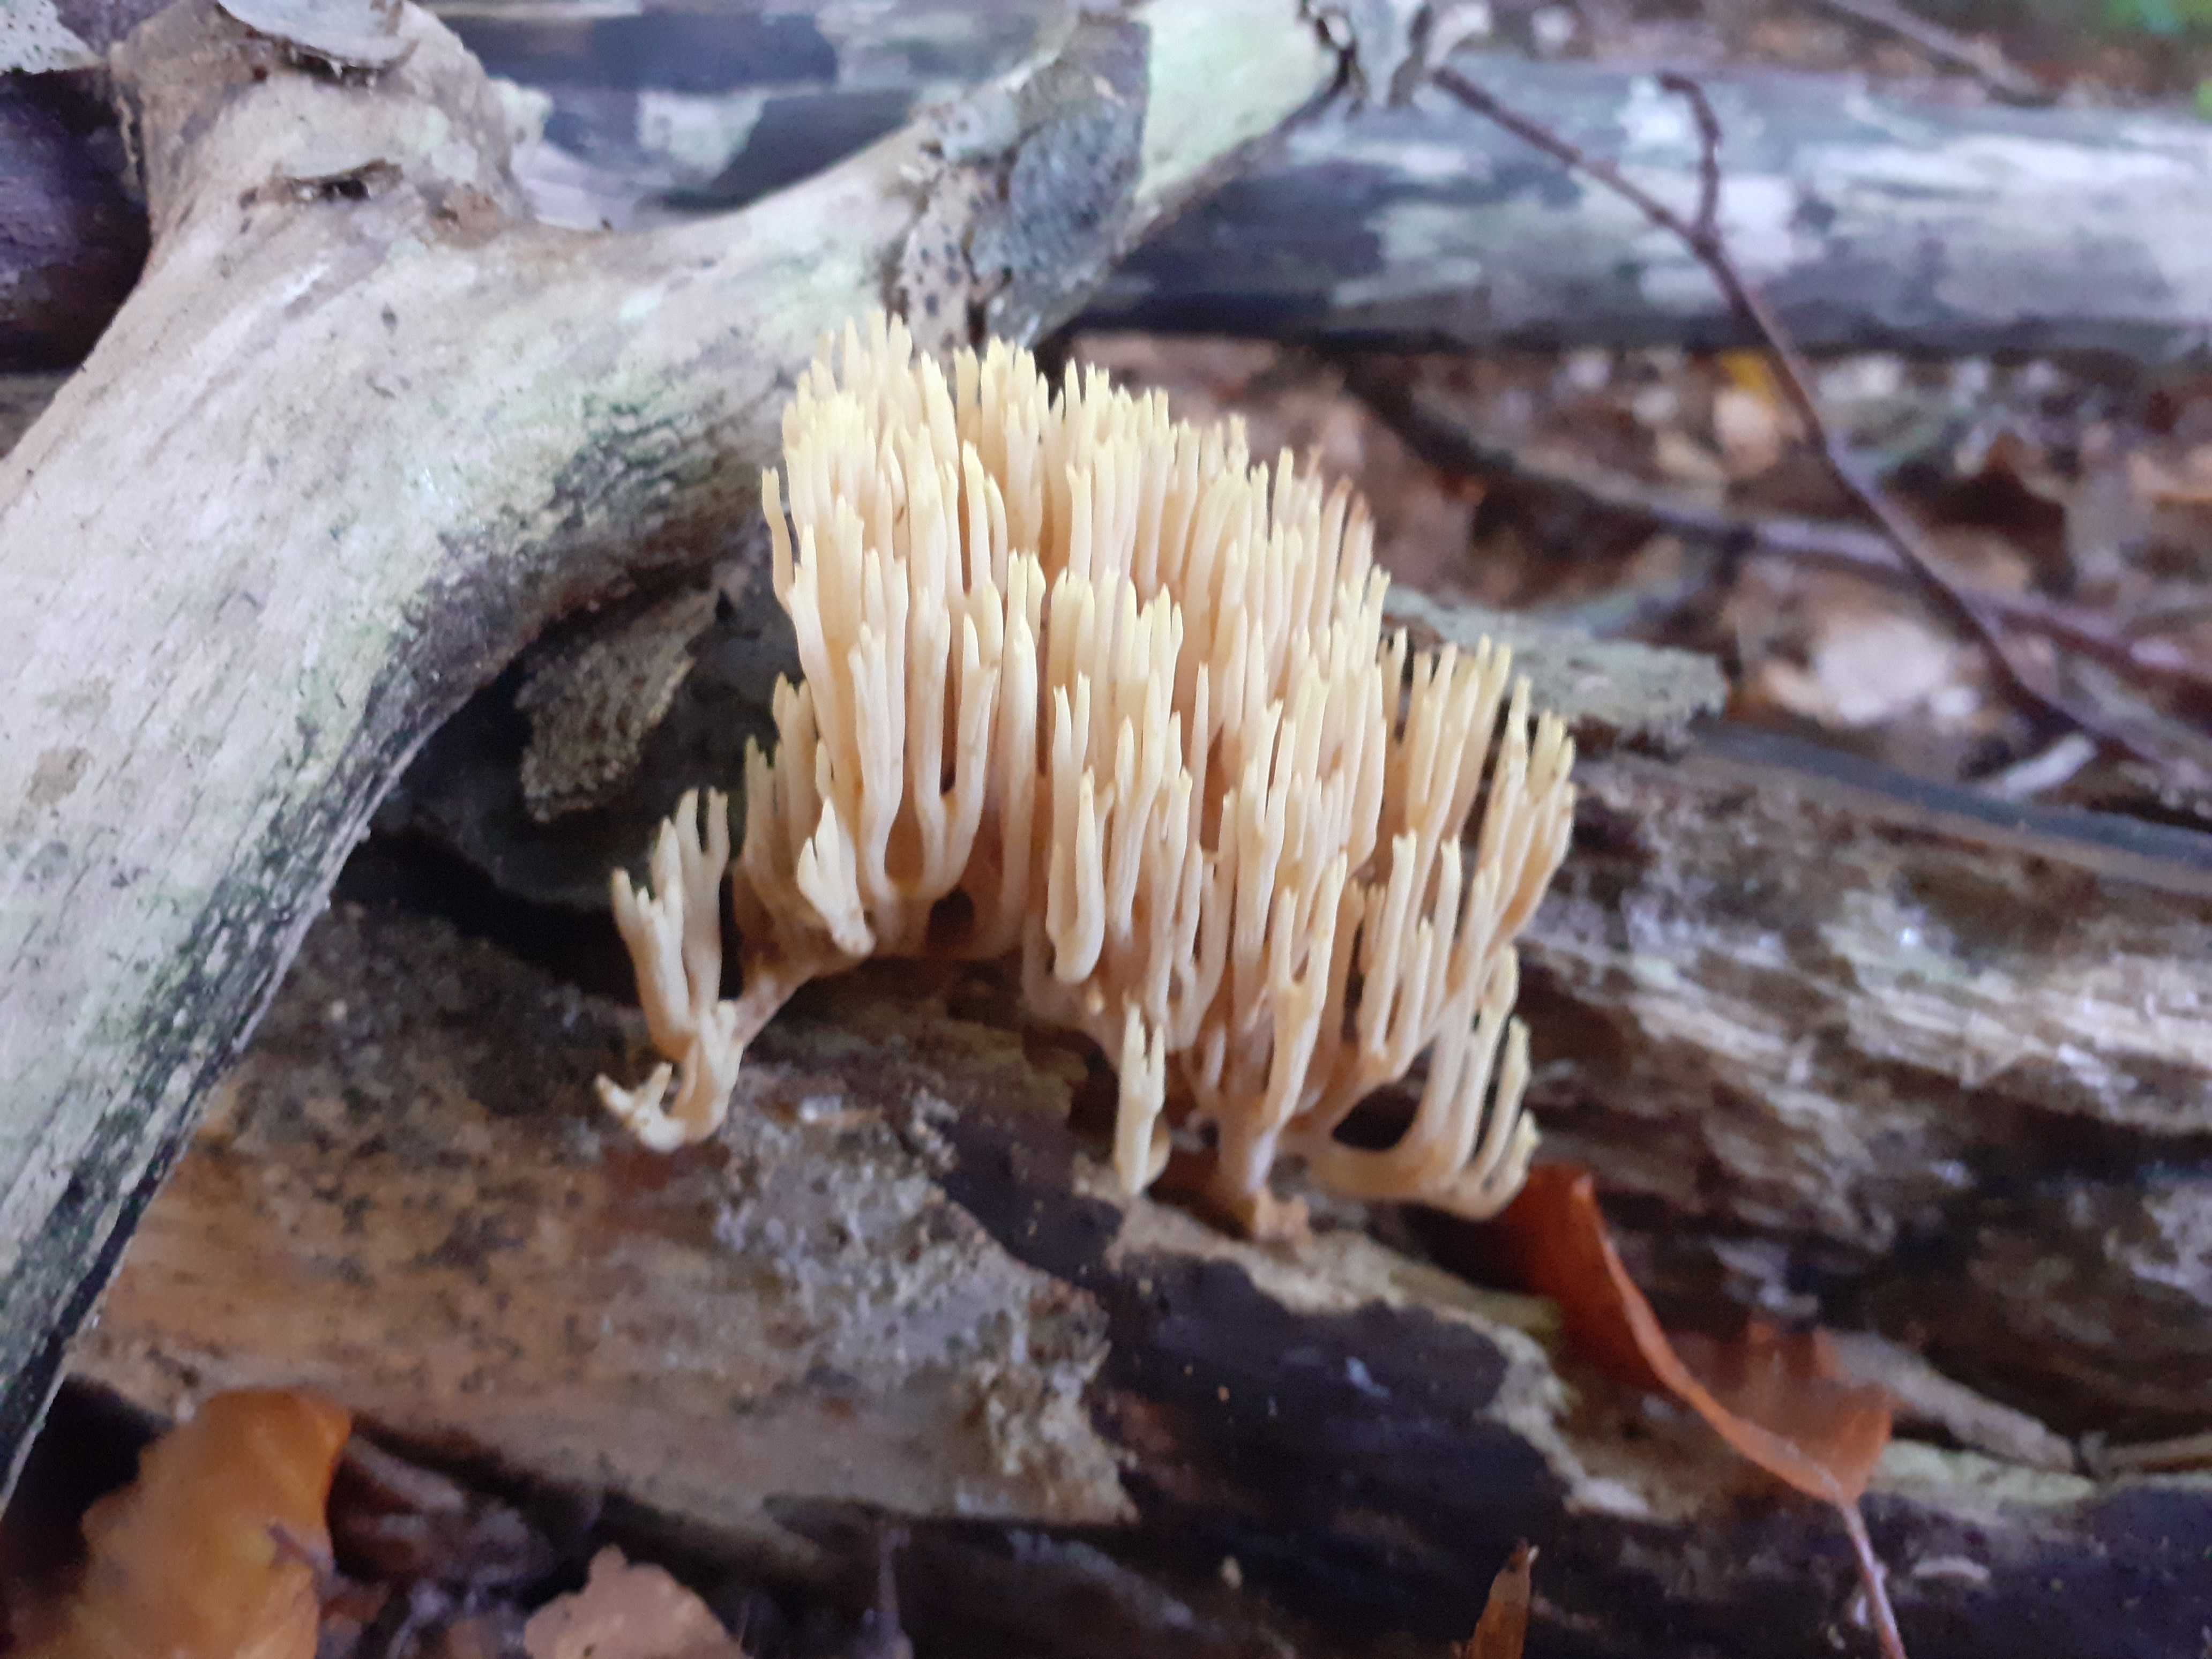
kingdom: Fungi
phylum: Basidiomycota
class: Agaricomycetes
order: Gomphales
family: Gomphaceae
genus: Ramaria
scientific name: Ramaria stricta
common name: rank koralsvamp
